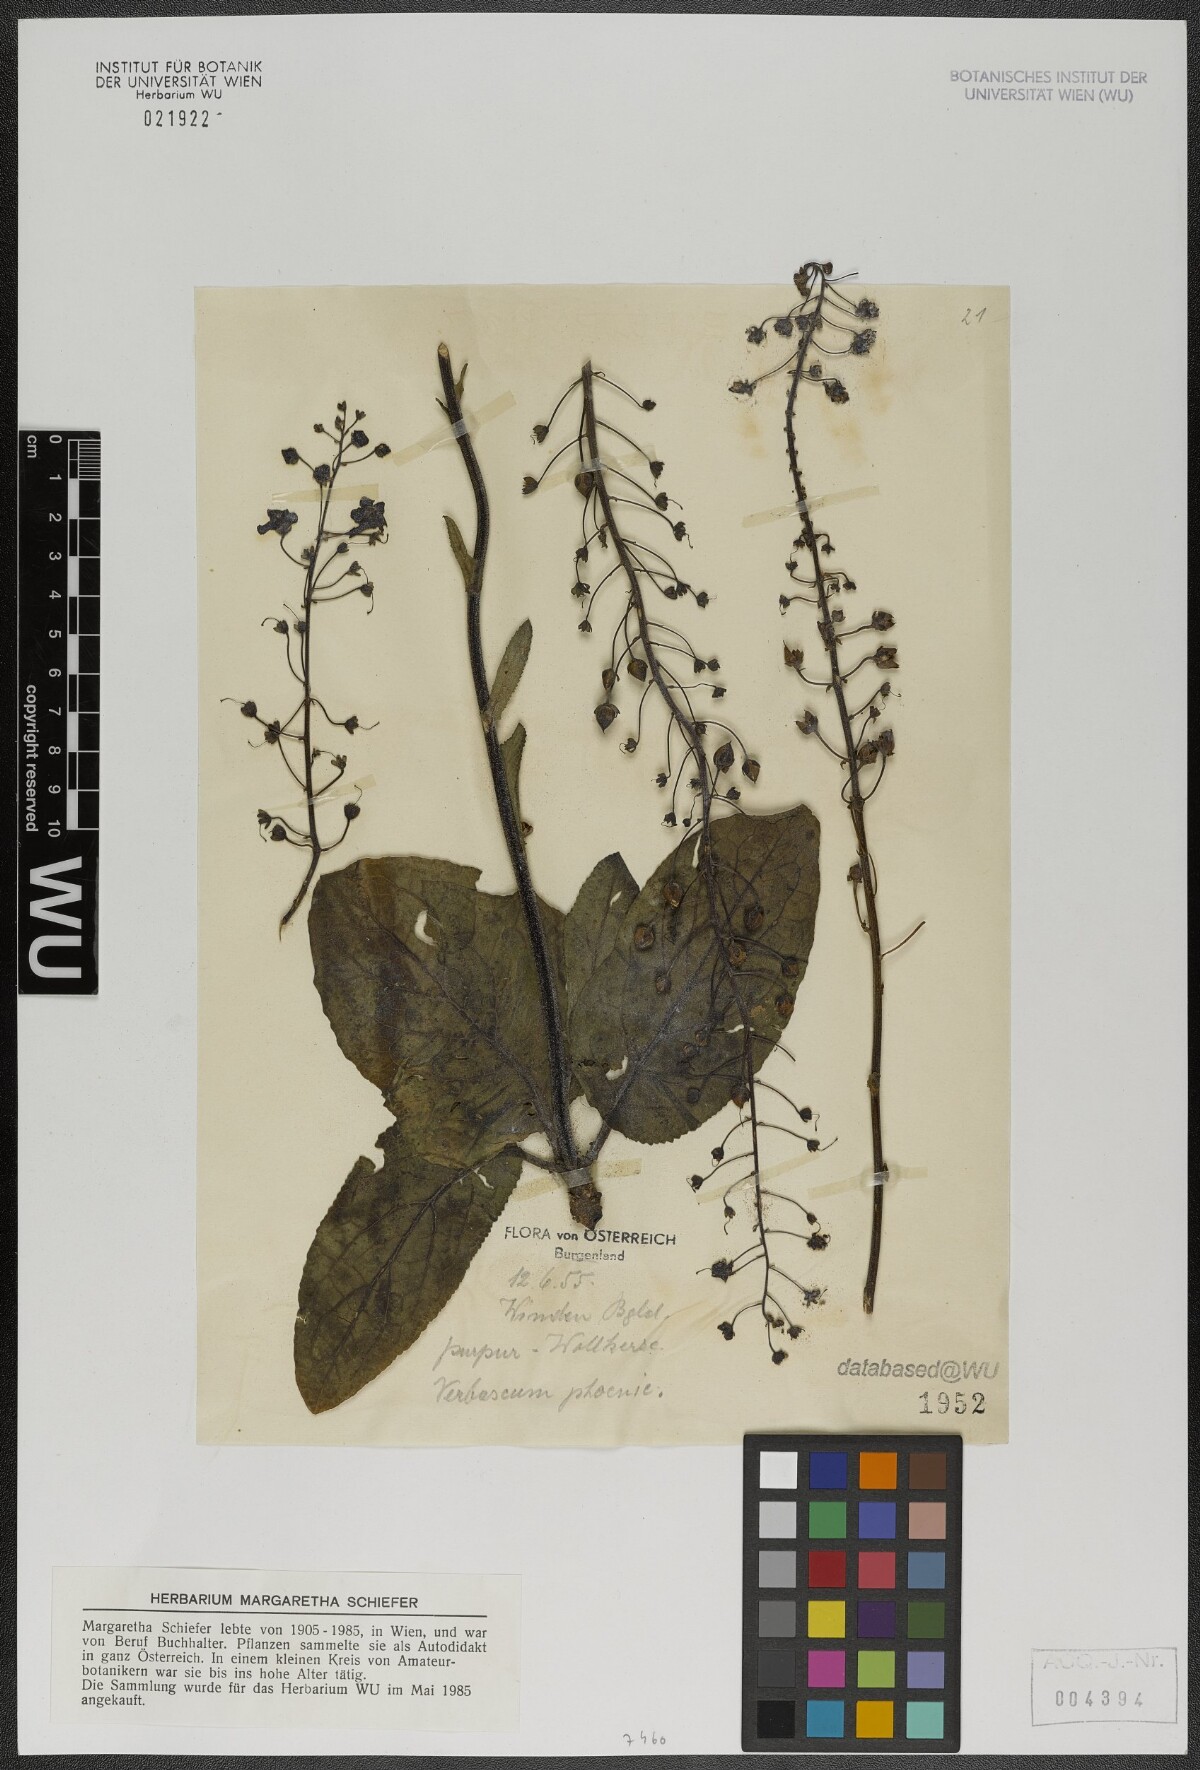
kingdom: Plantae
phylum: Tracheophyta
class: Magnoliopsida
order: Lamiales
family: Scrophulariaceae
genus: Verbascum
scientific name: Verbascum phoeniceum
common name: Purple mullein
